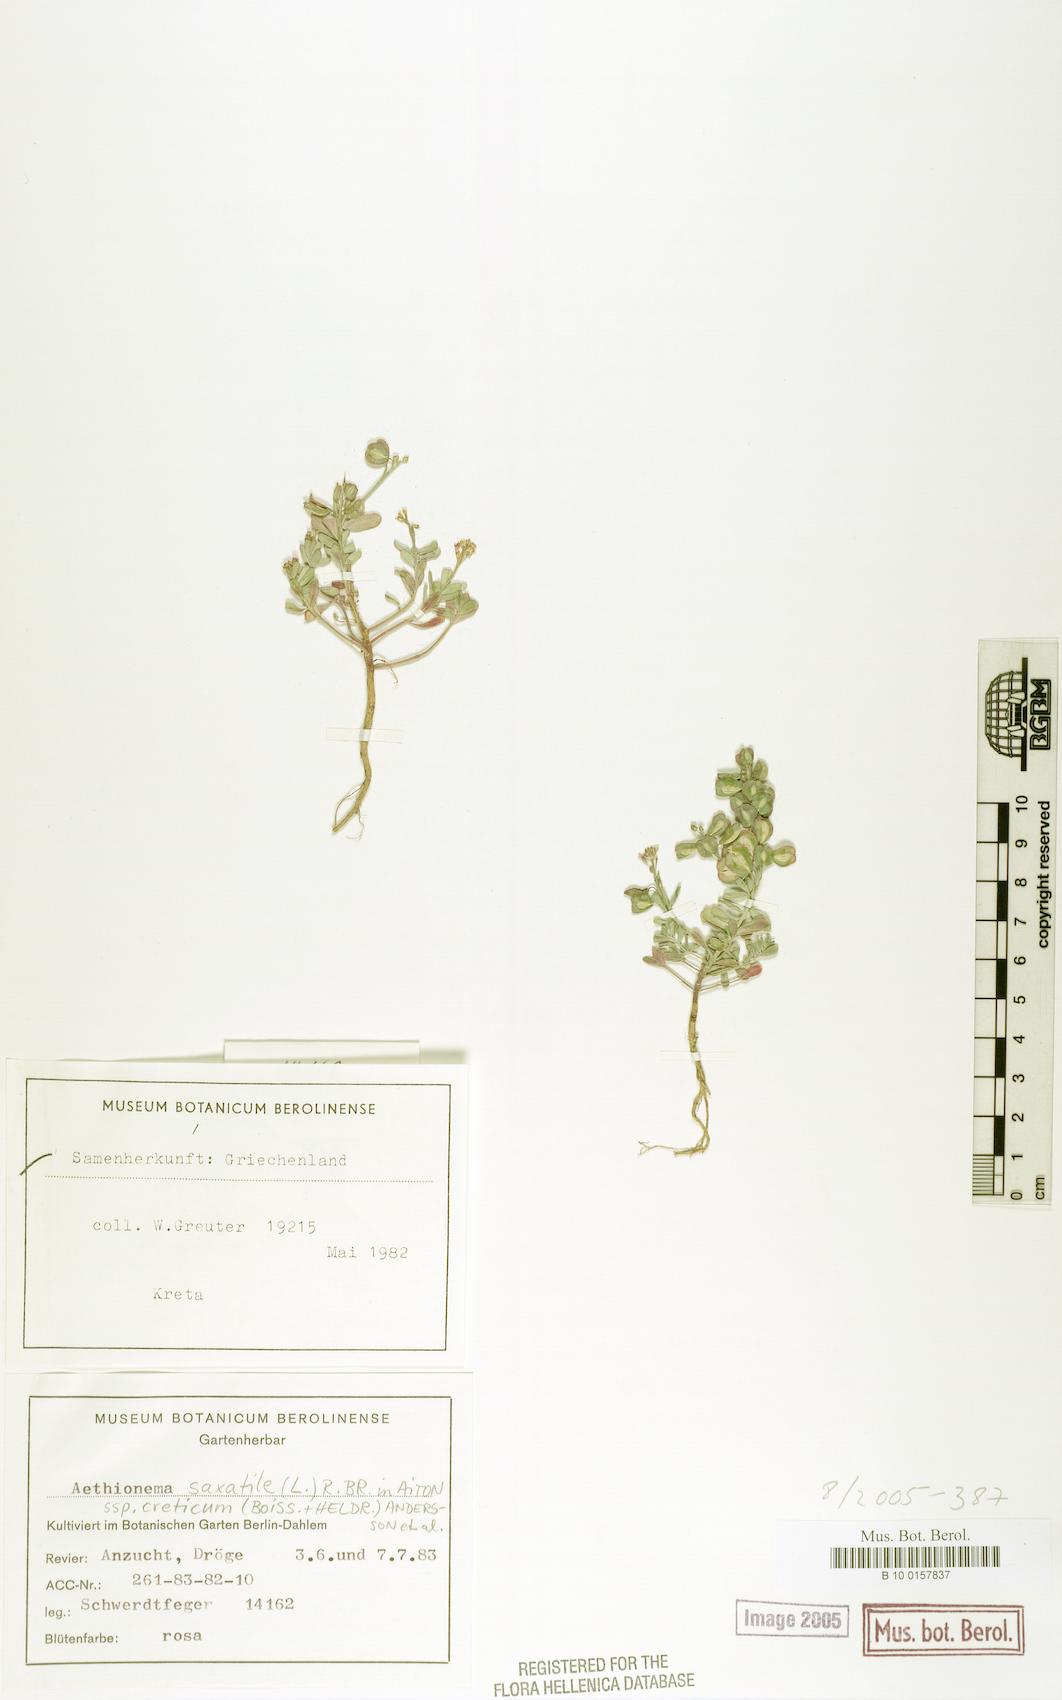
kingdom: Plantae
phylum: Tracheophyta
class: Magnoliopsida
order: Brassicales
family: Brassicaceae
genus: Aethionema
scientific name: Aethionema saxatile
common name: Burnt candytuft
